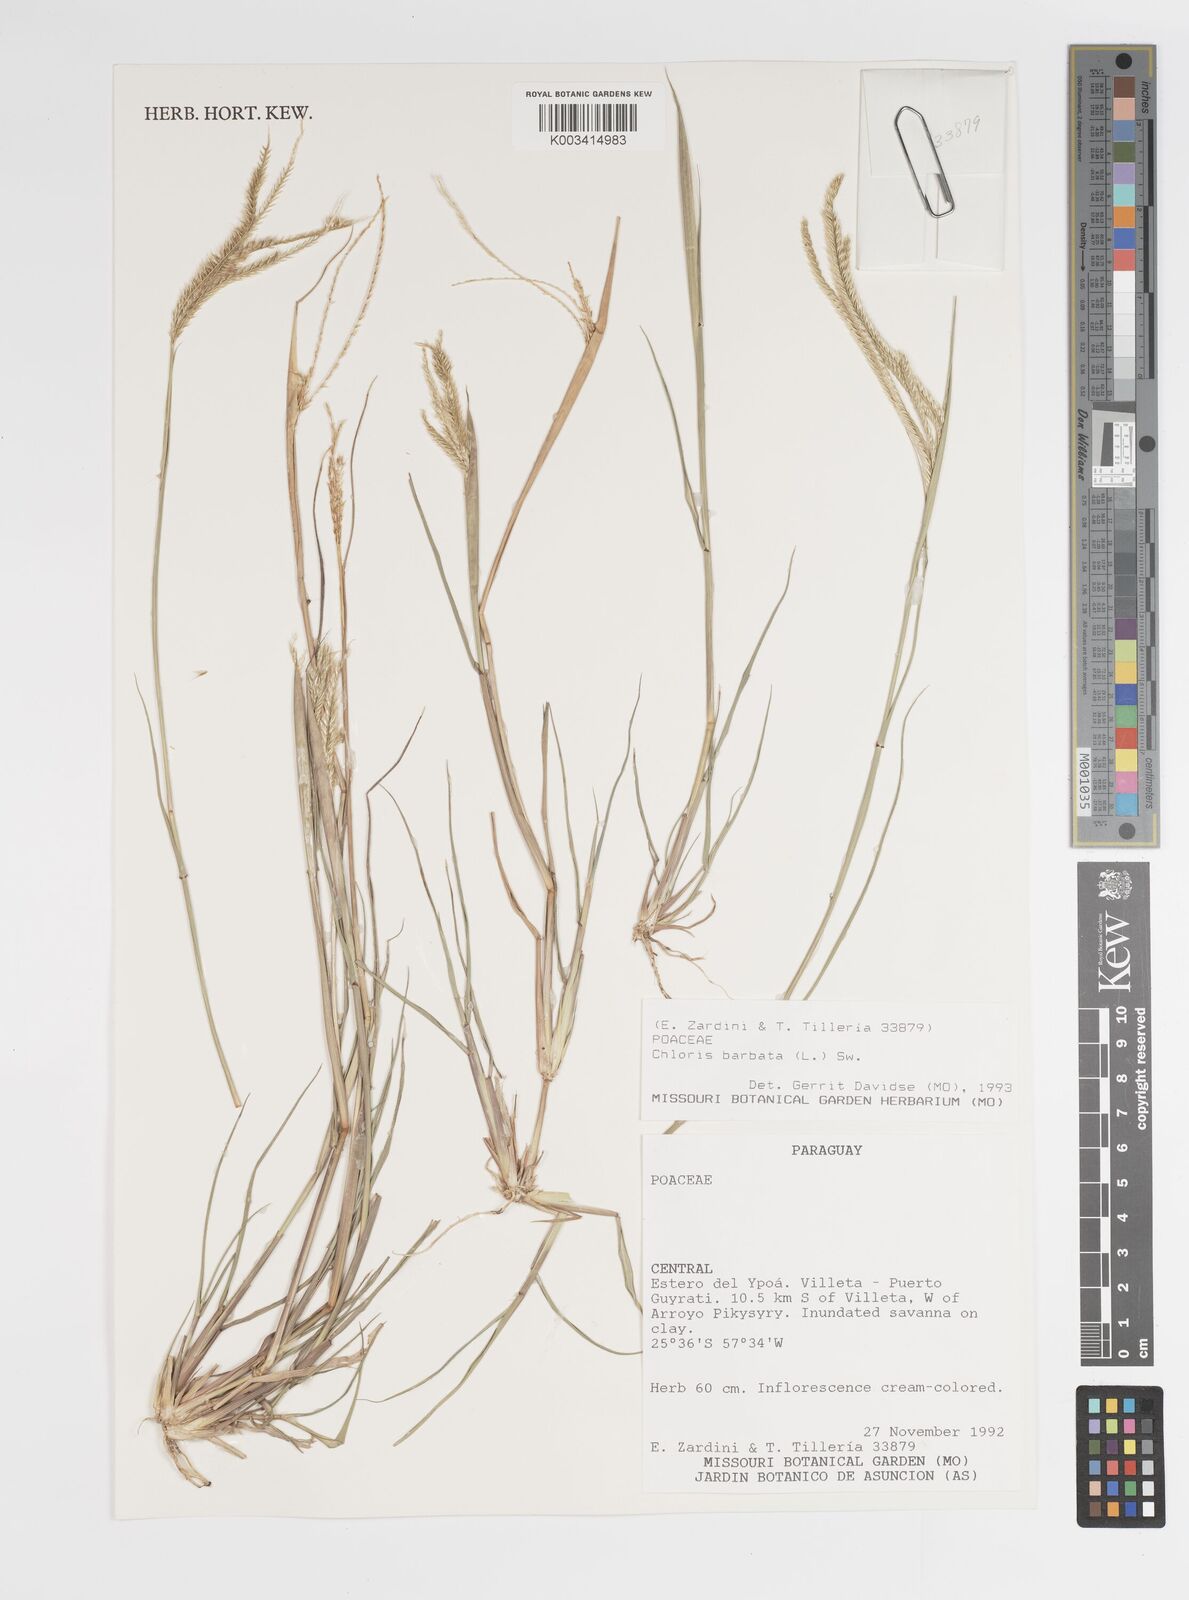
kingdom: Plantae
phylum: Tracheophyta
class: Liliopsida
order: Poales
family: Poaceae
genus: Chloris
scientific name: Chloris barbata
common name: Swollen fingergrass
